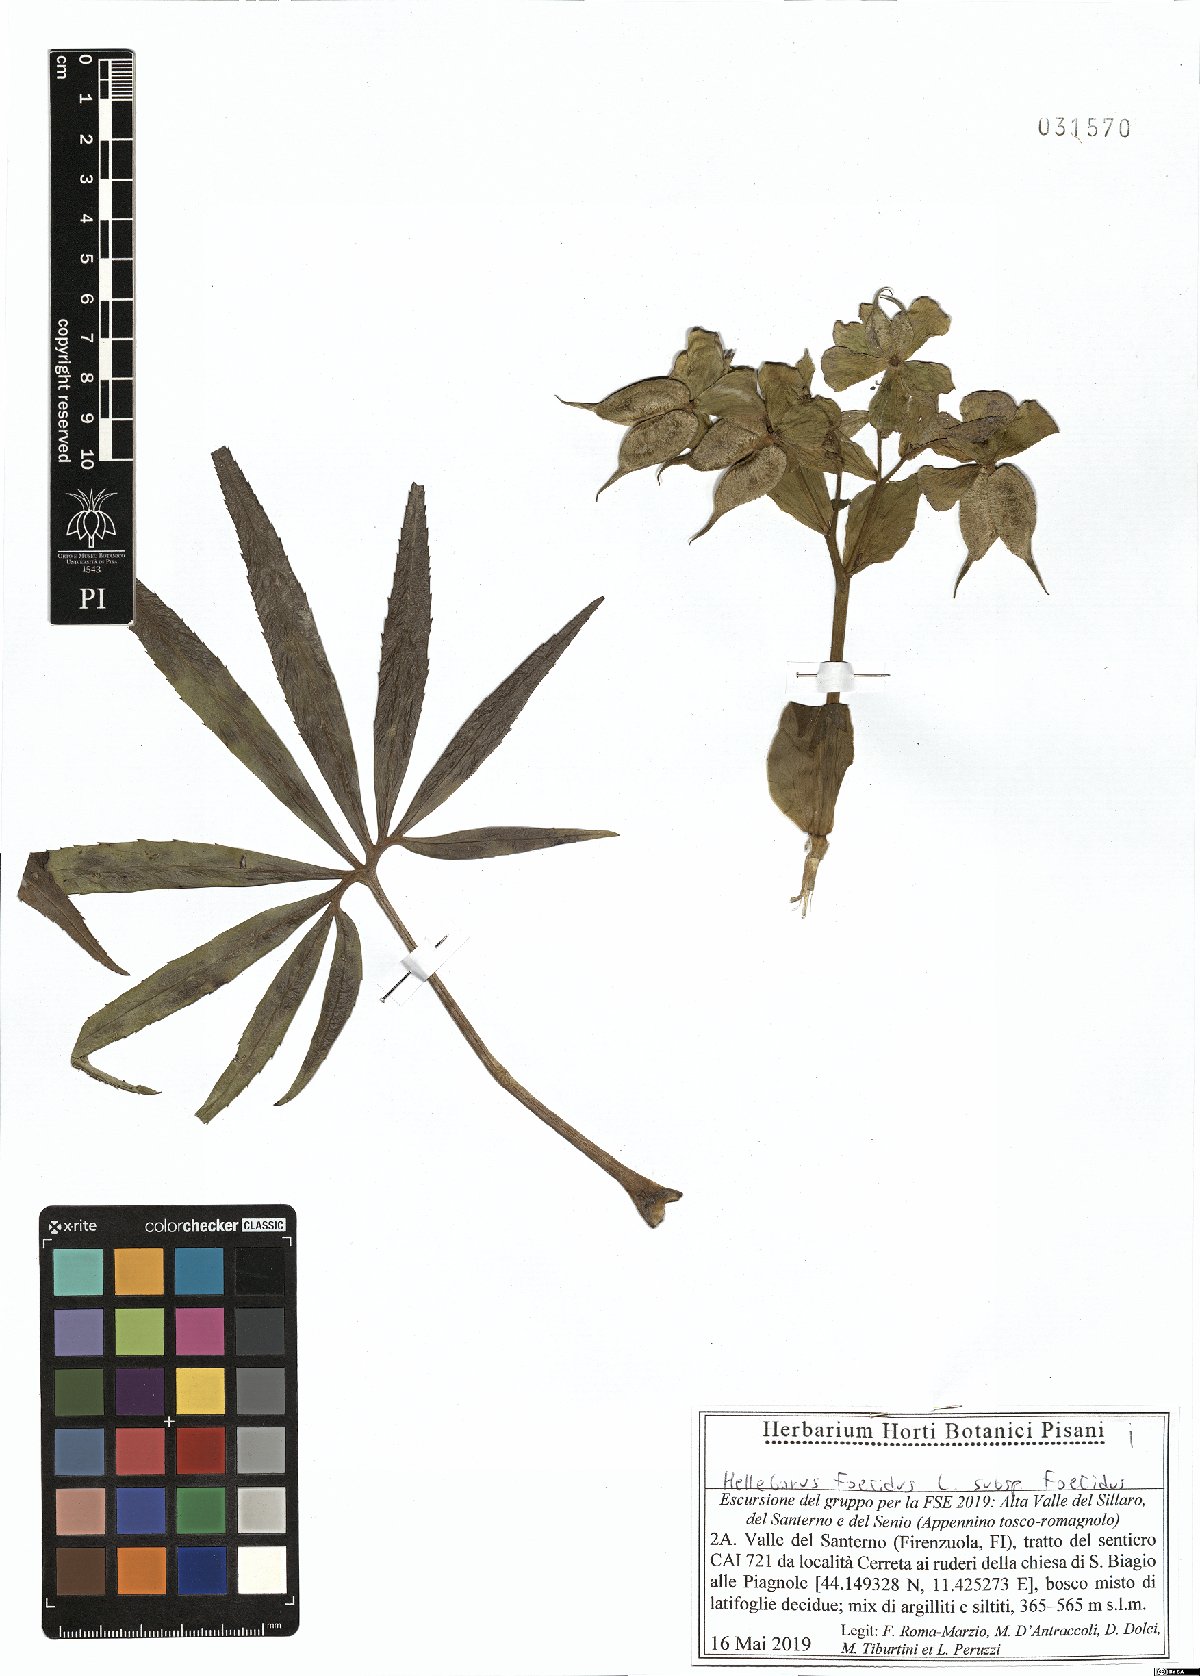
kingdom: Plantae
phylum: Tracheophyta
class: Magnoliopsida
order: Ranunculales
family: Ranunculaceae
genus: Helleborus
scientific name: Helleborus foetidus
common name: Stinking hellebore
